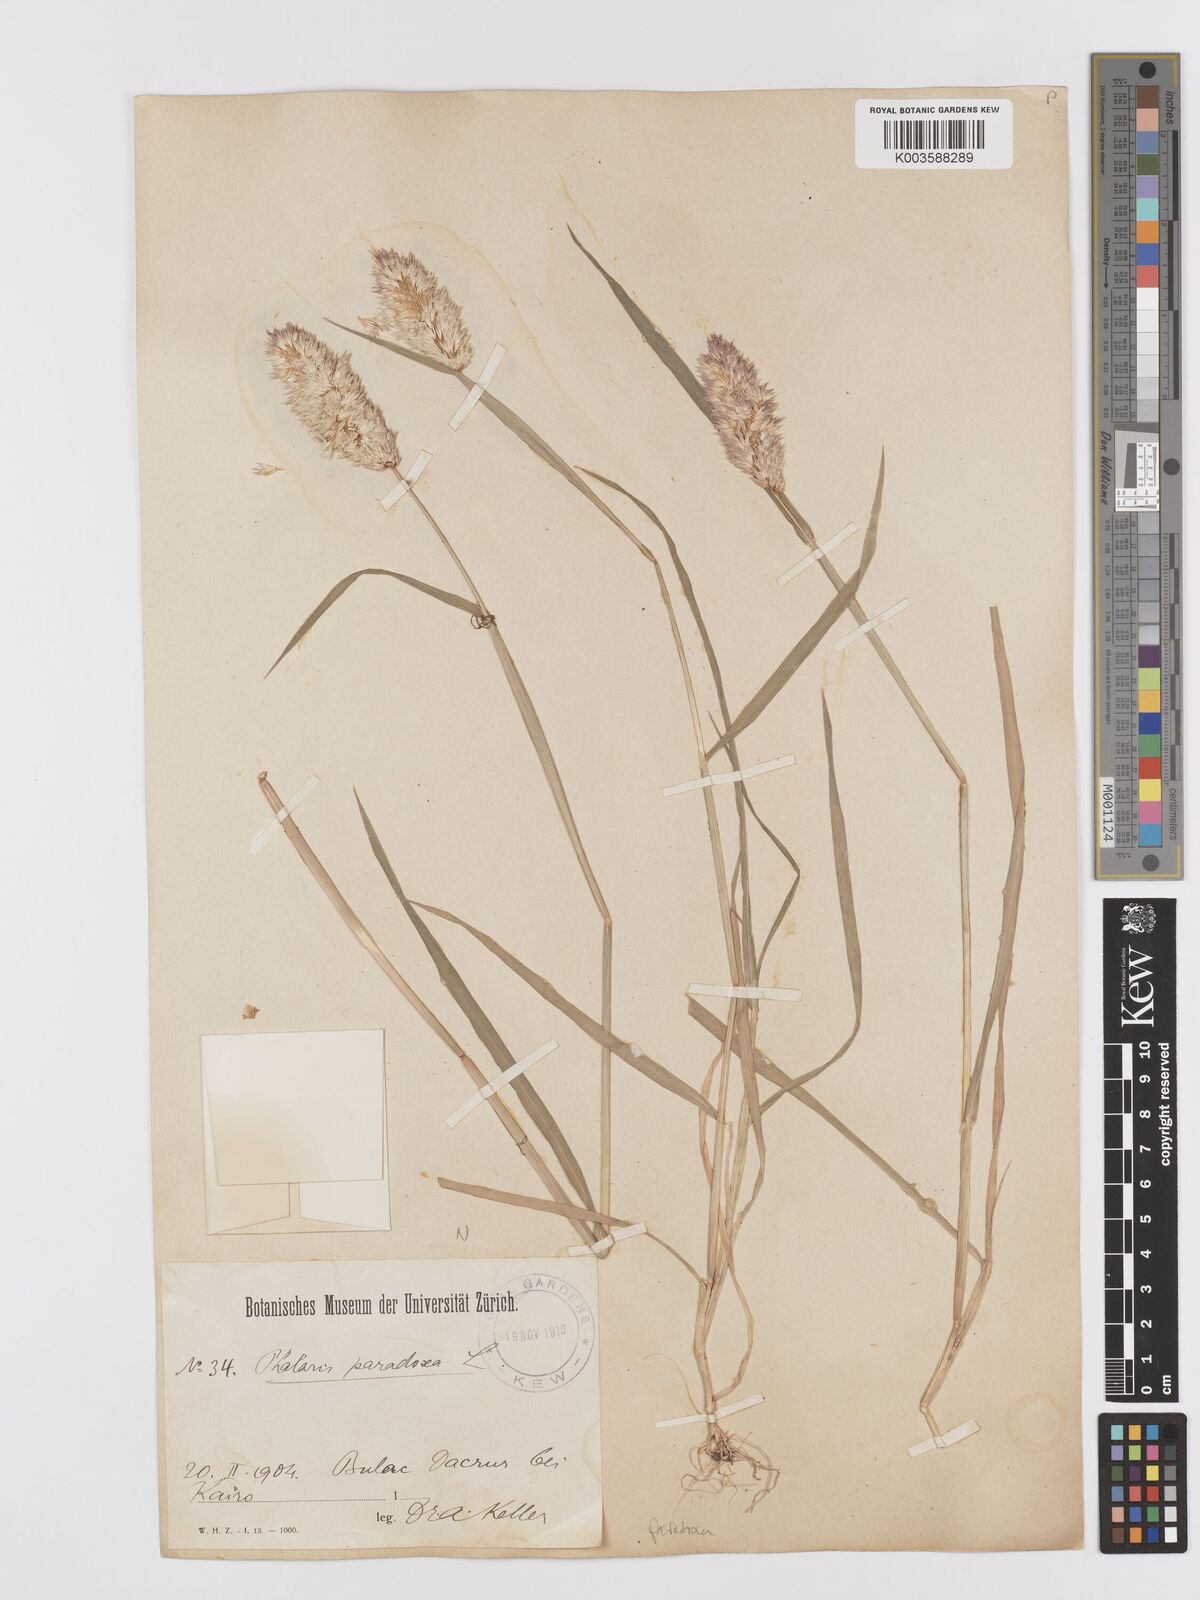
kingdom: Plantae
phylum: Tracheophyta
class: Liliopsida
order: Poales
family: Poaceae
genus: Phalaris
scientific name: Phalaris paradoxa
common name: Awned canary-grass
